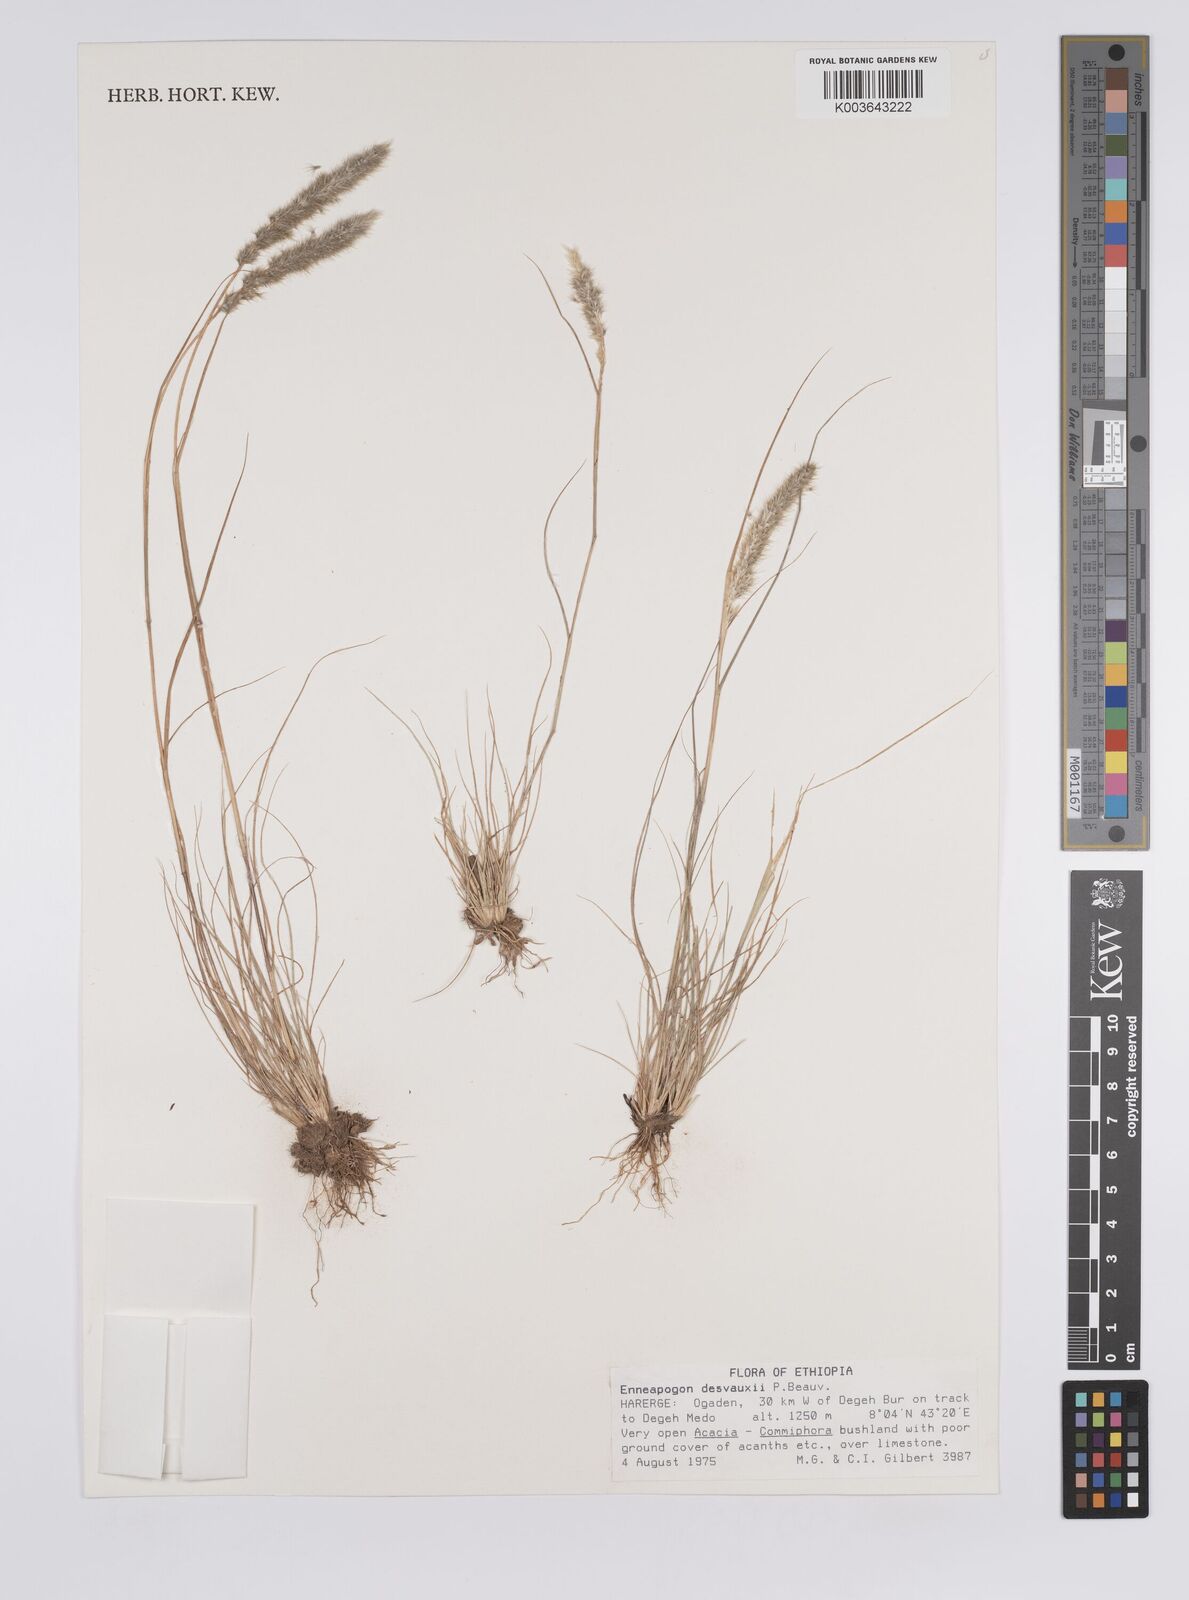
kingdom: Plantae
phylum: Tracheophyta
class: Liliopsida
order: Poales
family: Poaceae
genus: Enneapogon
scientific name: Enneapogon desvauxii
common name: Feather pappus grass
